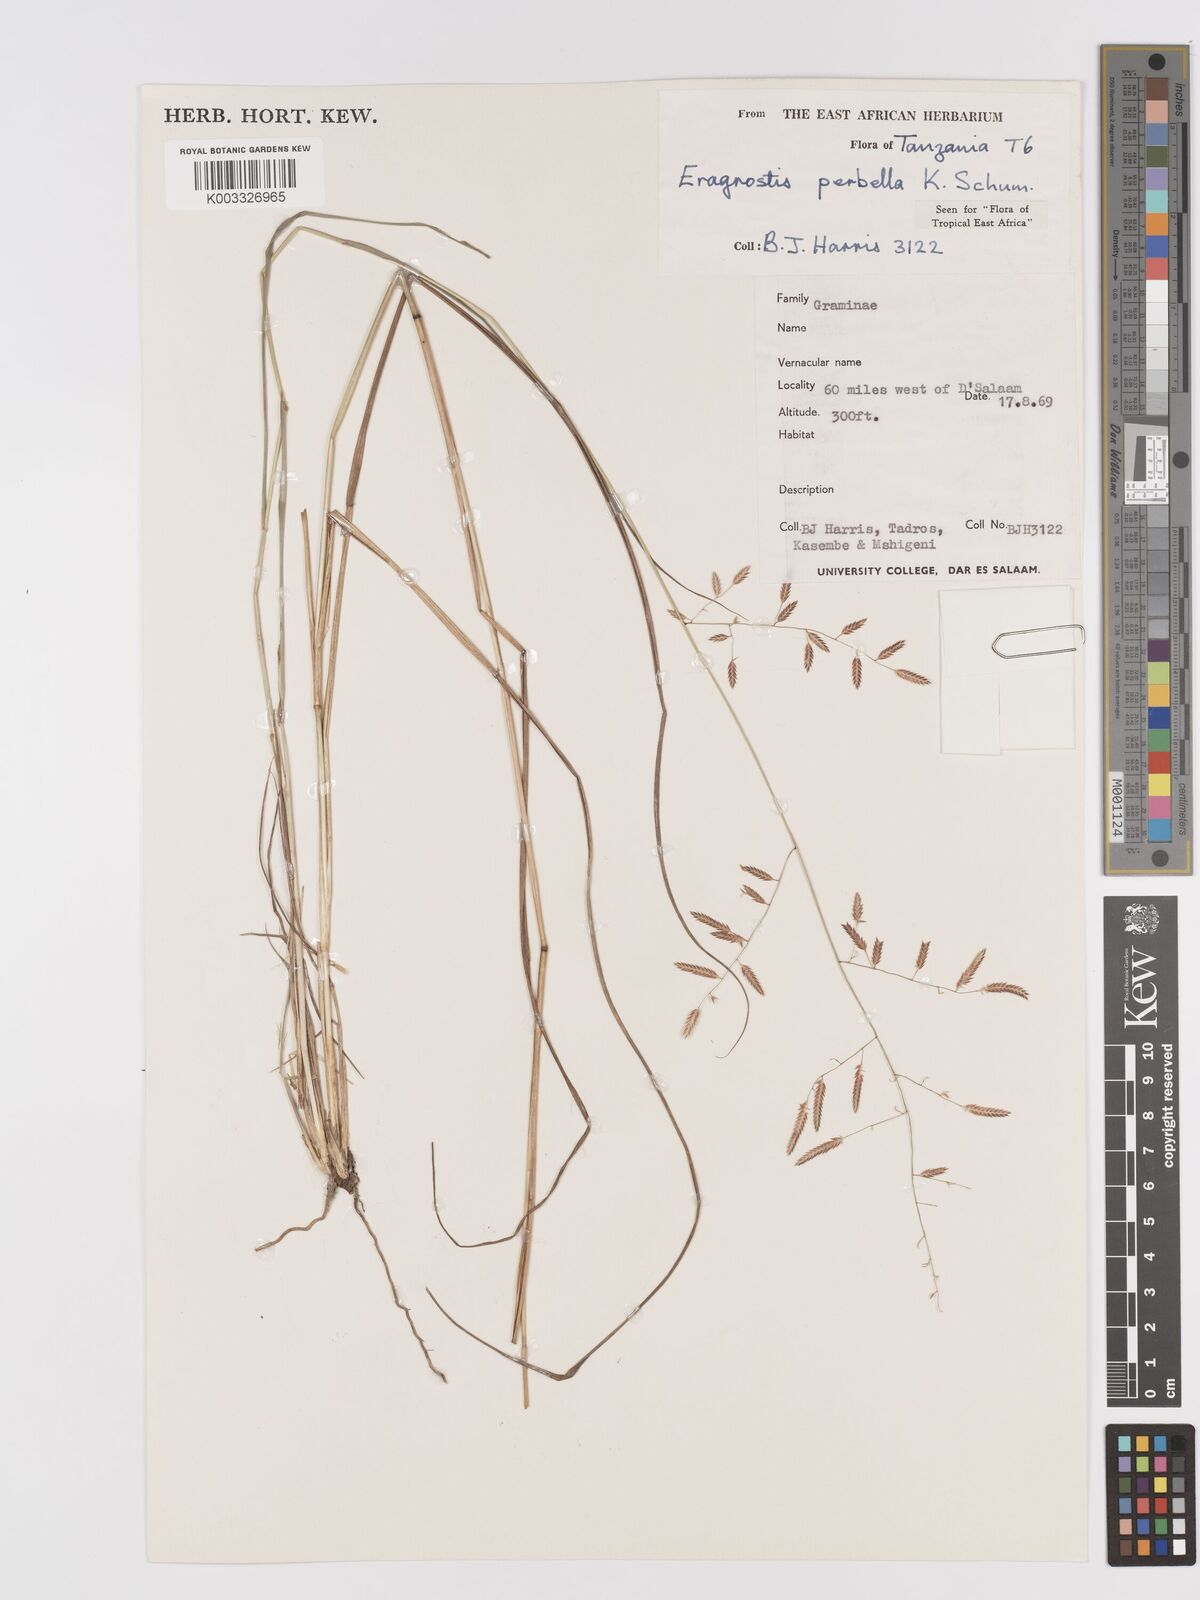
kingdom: Plantae
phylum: Tracheophyta
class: Liliopsida
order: Poales
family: Poaceae
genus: Eragrostis
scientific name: Eragrostis perbella
